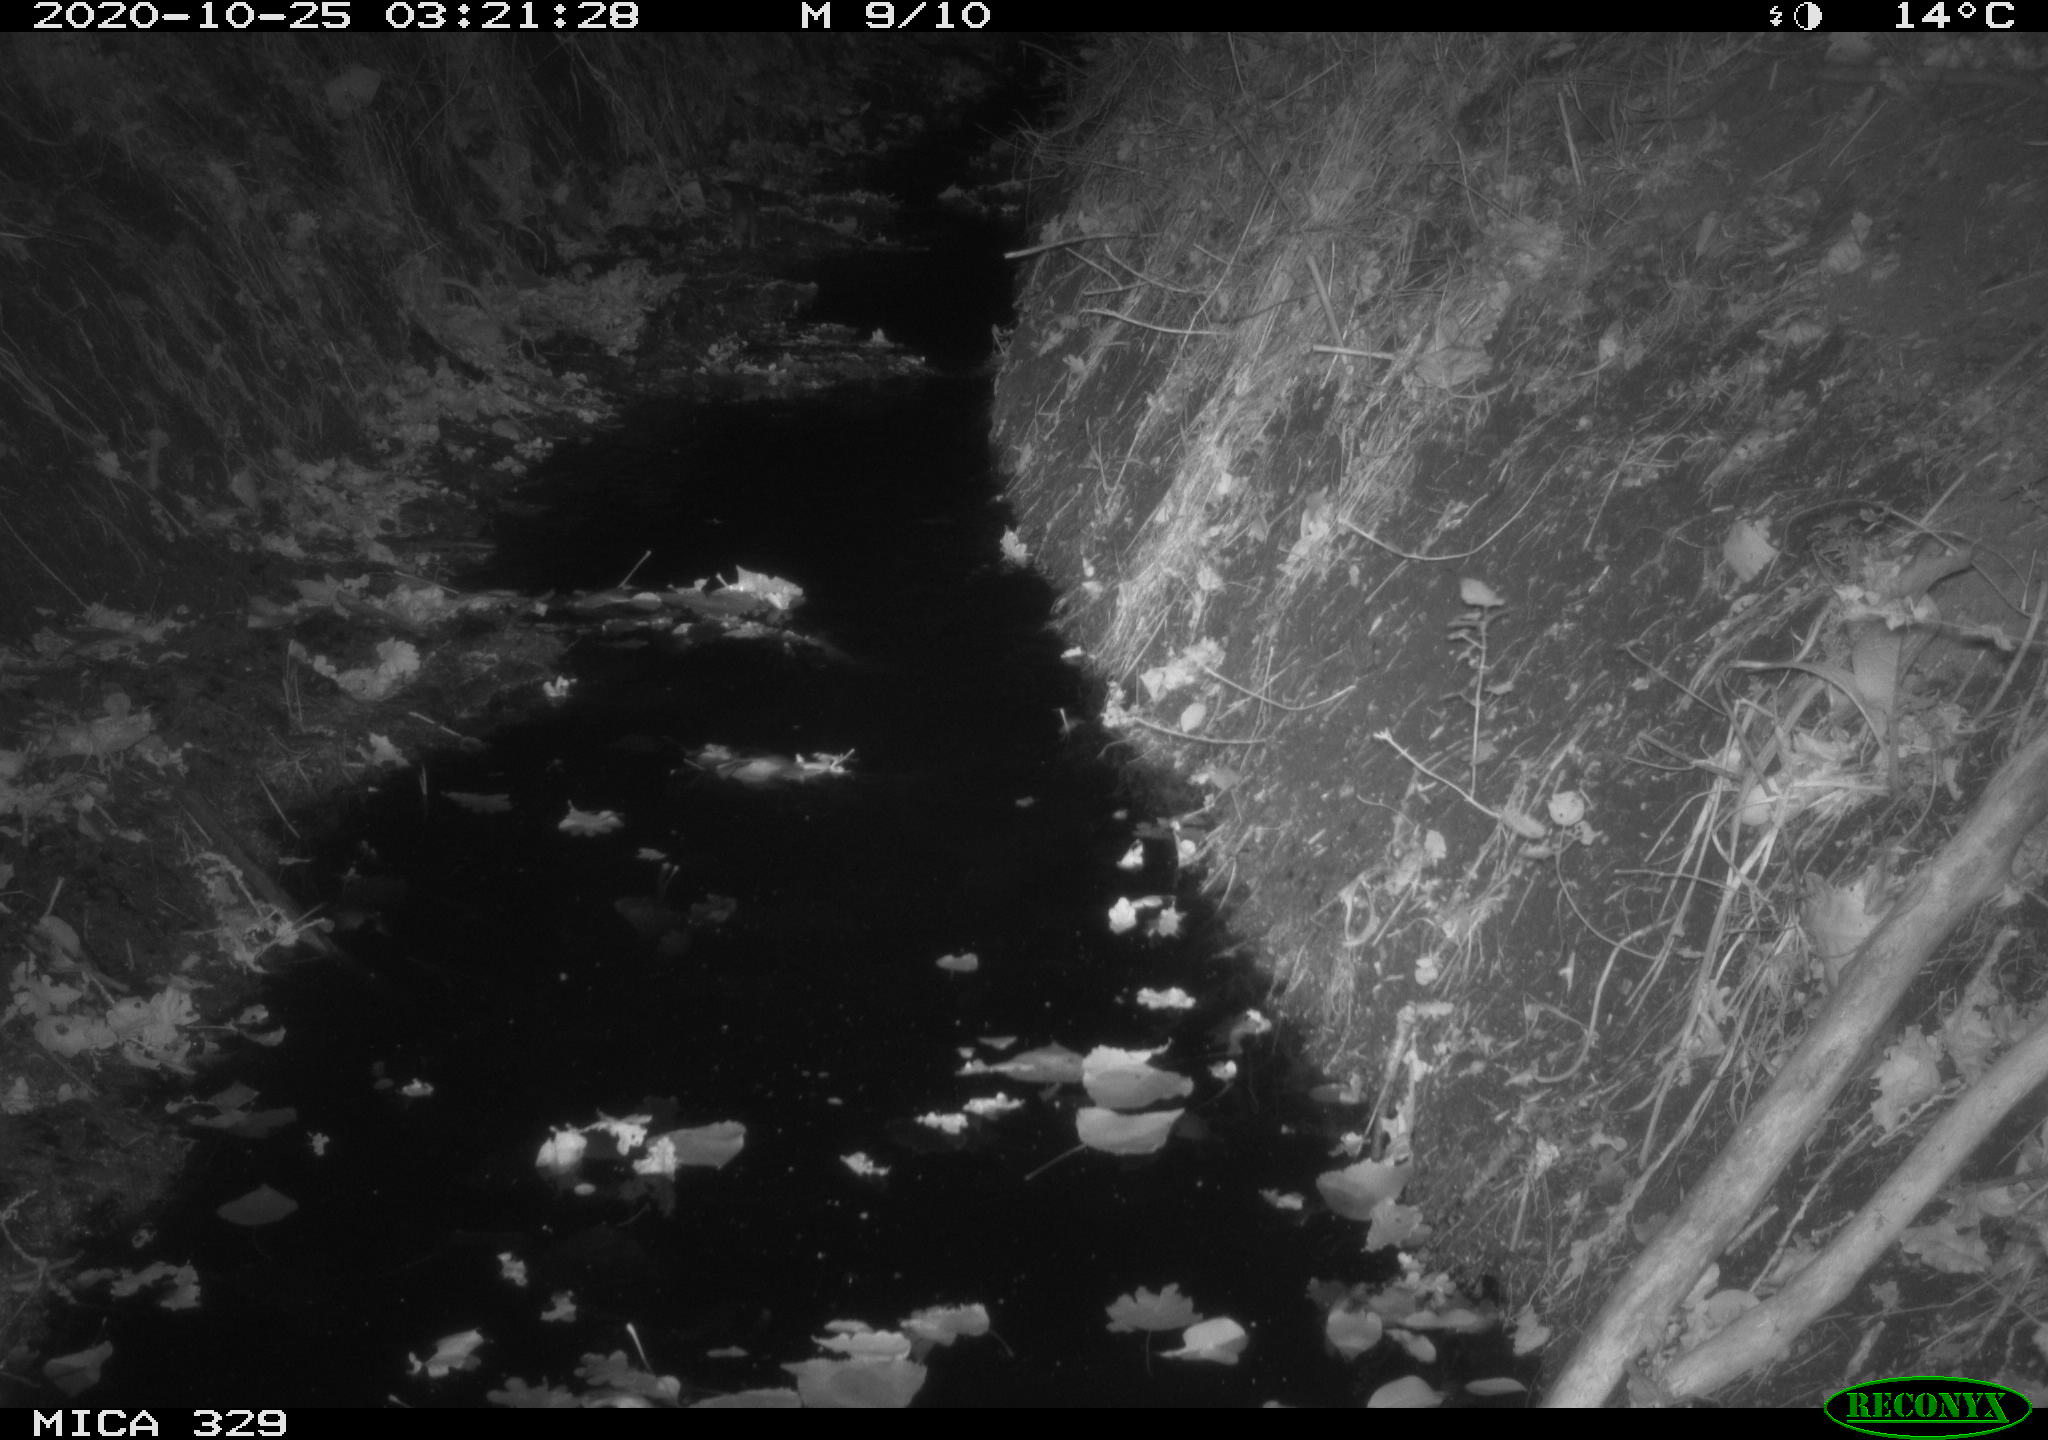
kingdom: Animalia
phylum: Chordata
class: Mammalia
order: Rodentia
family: Muridae
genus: Rattus
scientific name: Rattus norvegicus
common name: Brown rat
